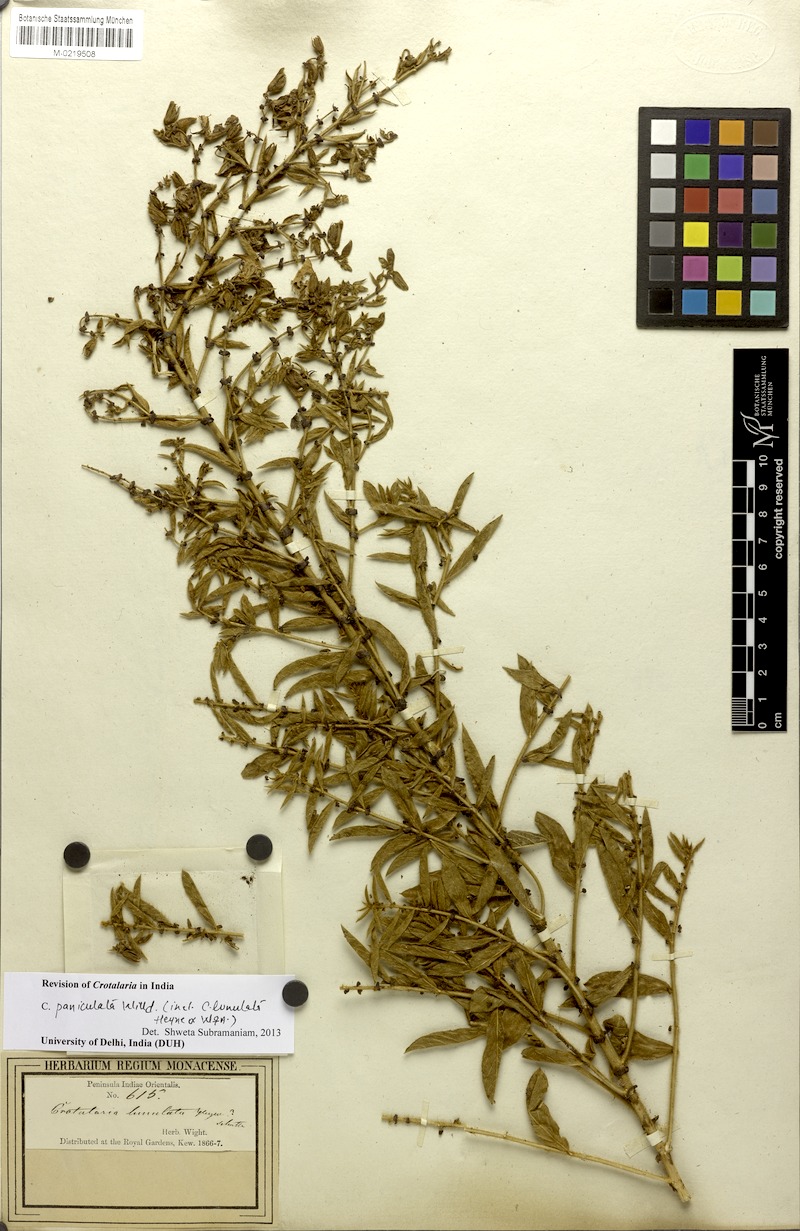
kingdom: Plantae
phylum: Tracheophyta
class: Magnoliopsida
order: Fabales
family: Fabaceae
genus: Crotalaria
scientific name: Crotalaria paniculata
